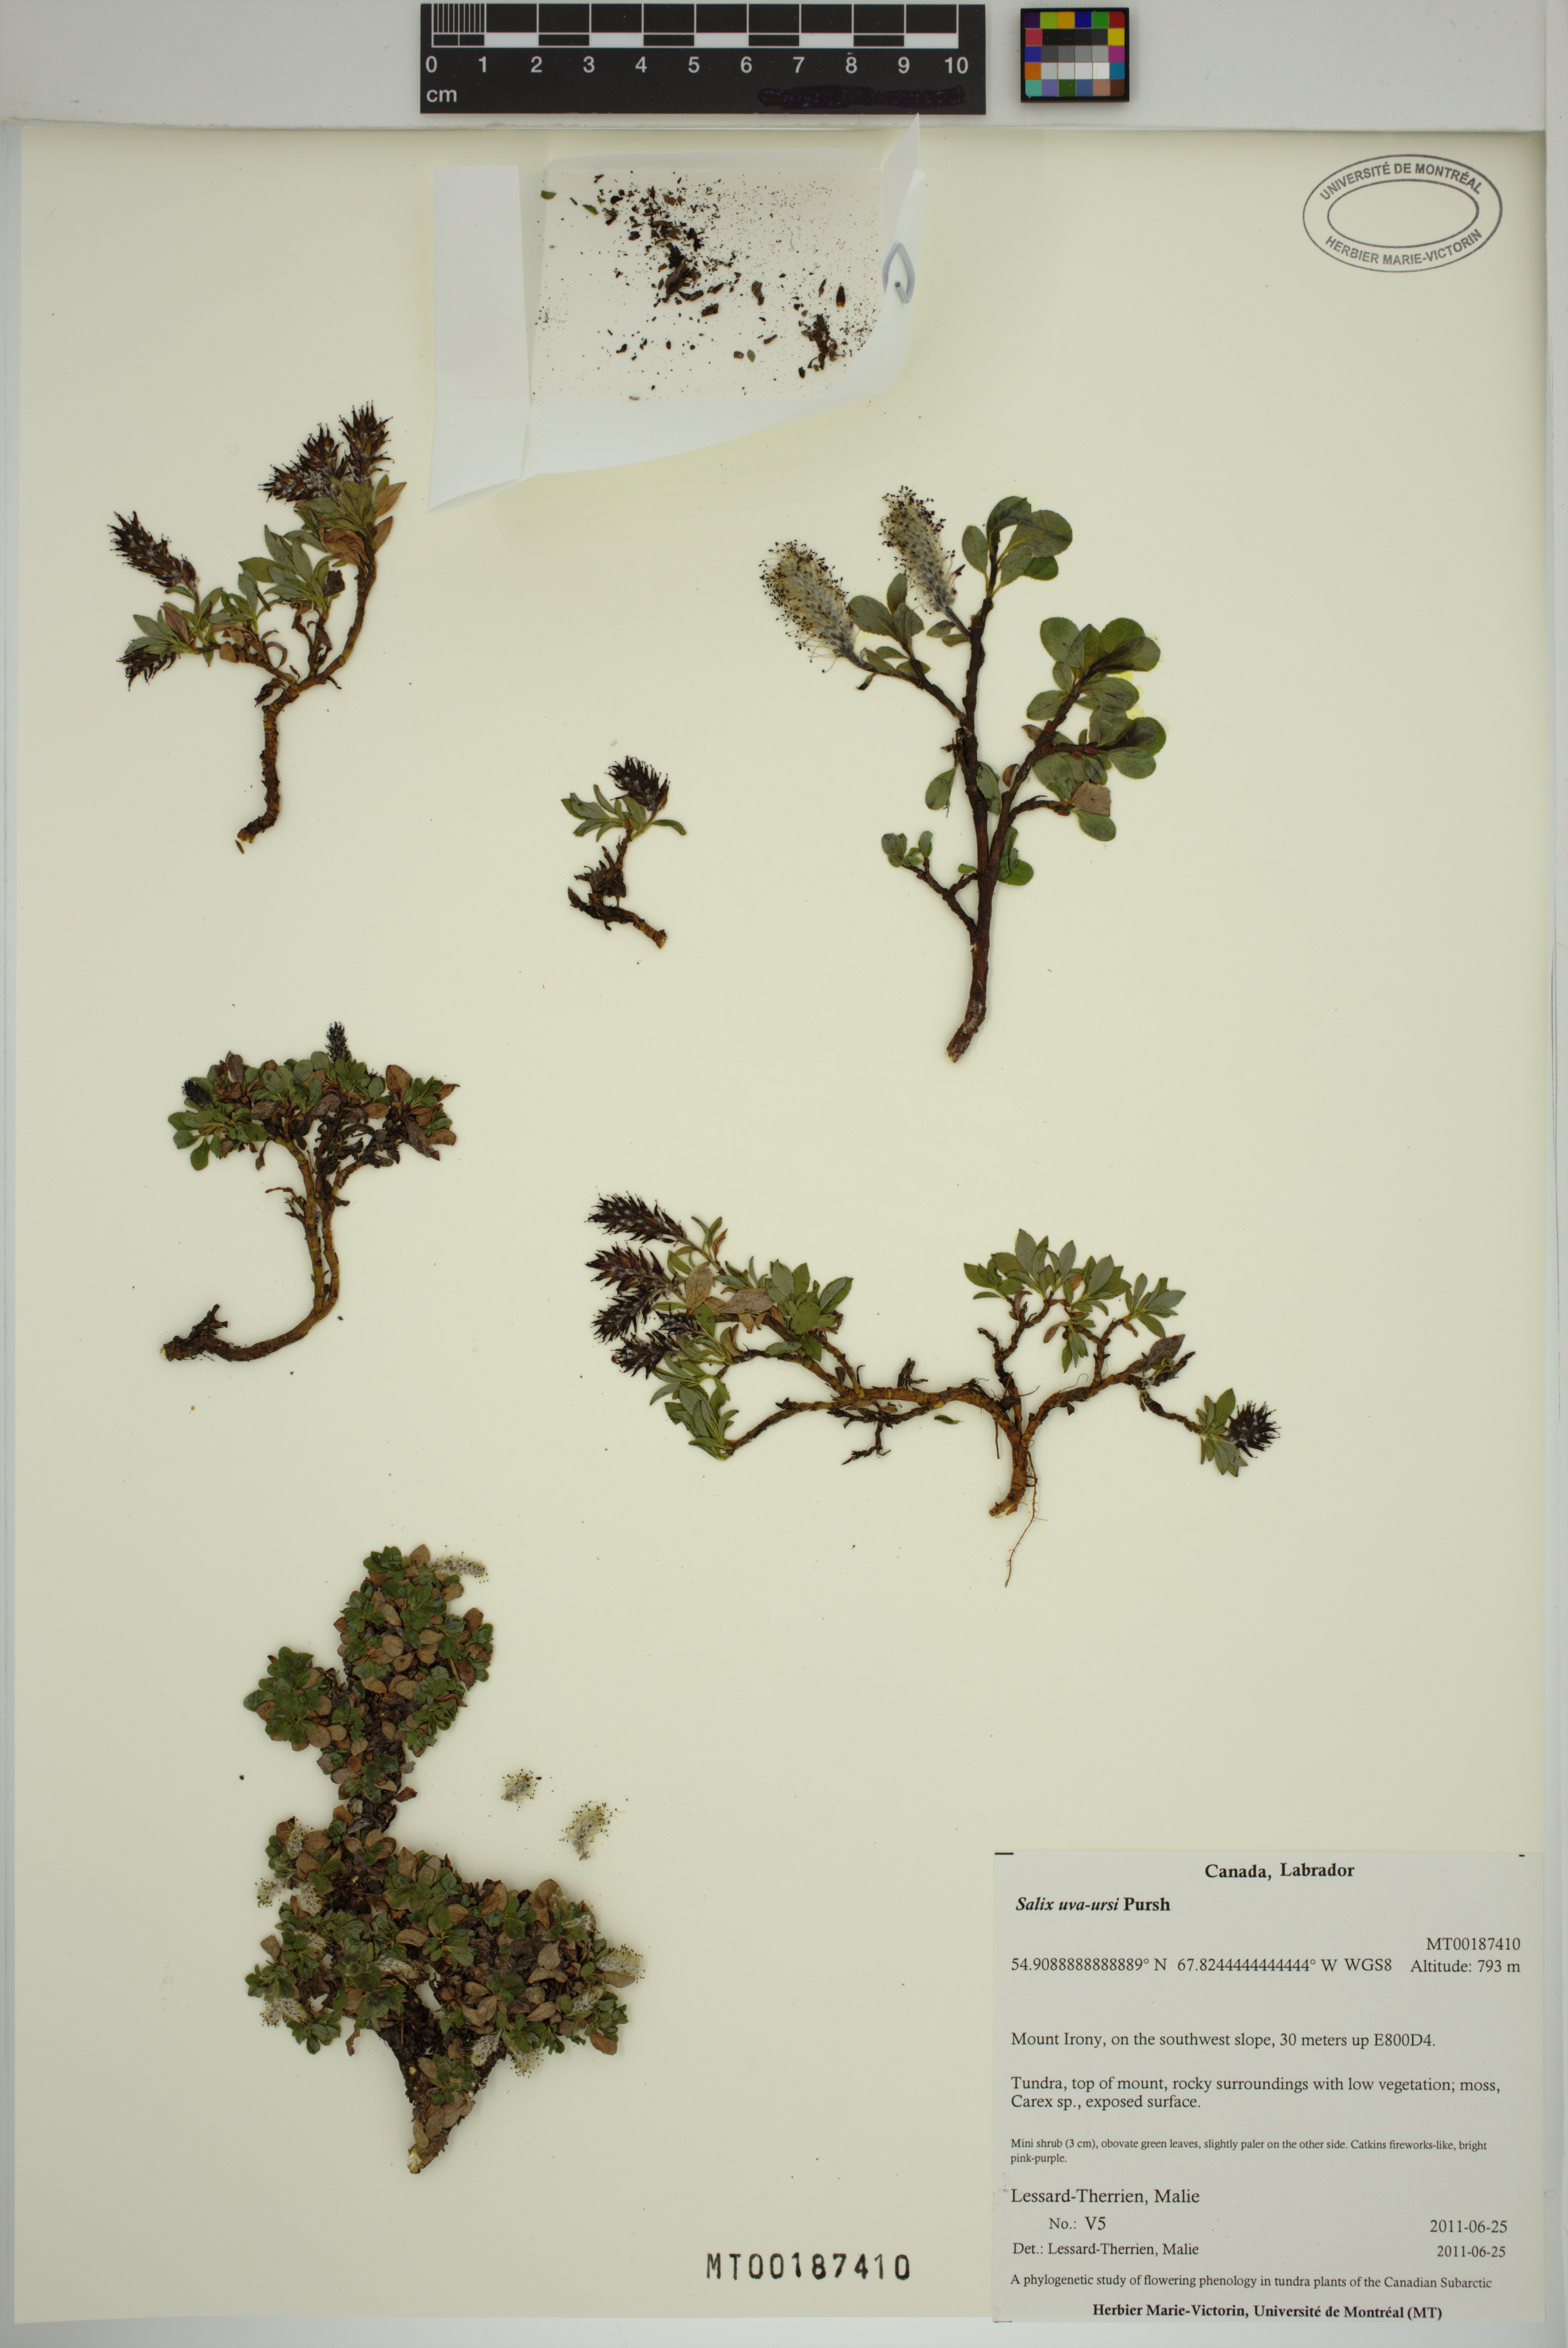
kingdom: Plantae
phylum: Tracheophyta
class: Magnoliopsida
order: Malpighiales
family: Salicaceae
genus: Salix
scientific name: Salix uva-ursi
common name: Bearberry willow
